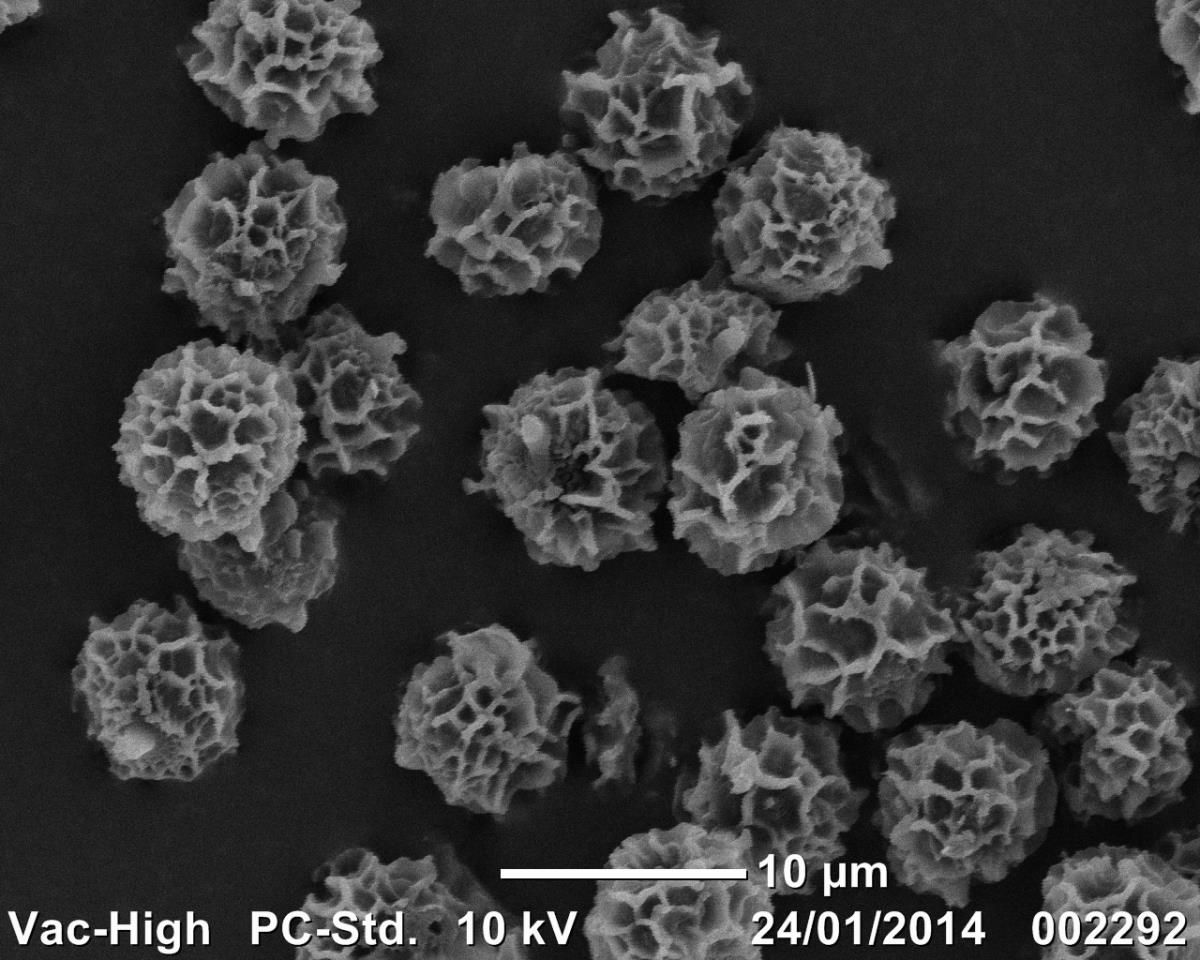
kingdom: Fungi
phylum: Basidiomycota
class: Agaricomycetes
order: Russulales
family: Russulaceae
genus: Zelleromyces
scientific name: Zelleromyces
